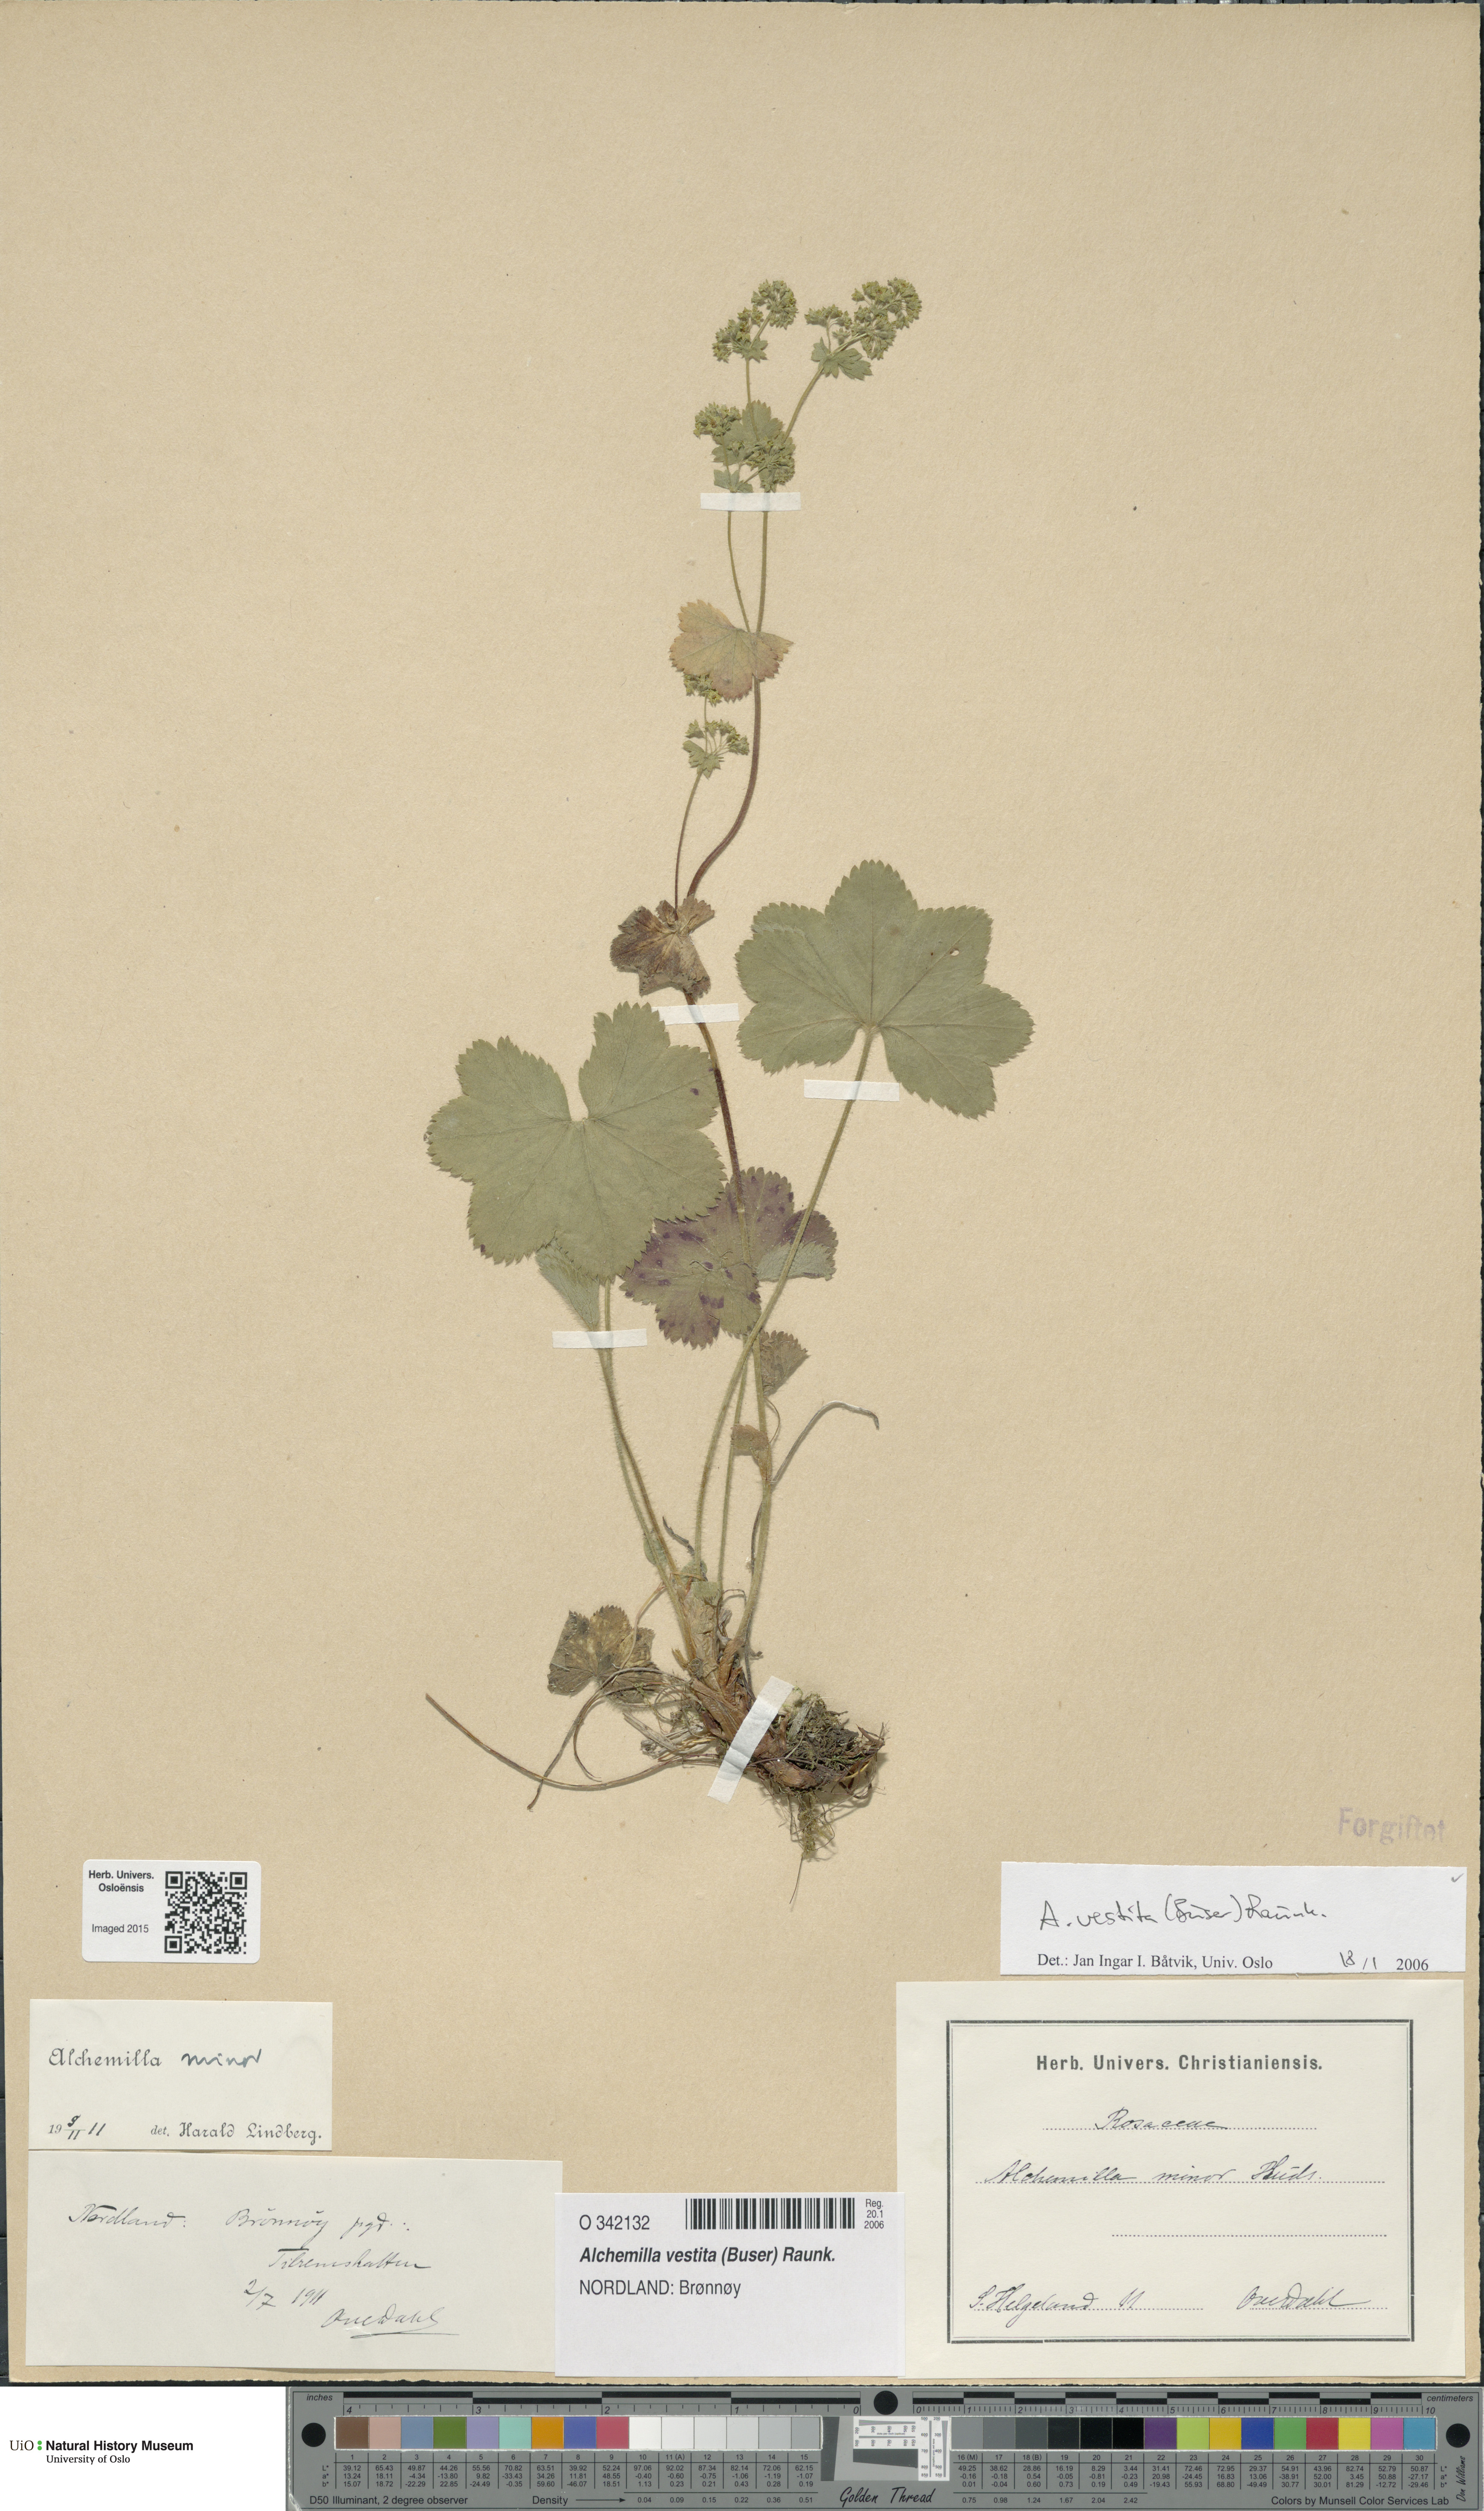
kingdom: Plantae
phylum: Tracheophyta
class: Magnoliopsida
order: Rosales
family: Rosaceae
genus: Alchemilla
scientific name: Alchemilla filicaulis
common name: Hairy lady's-mantle
